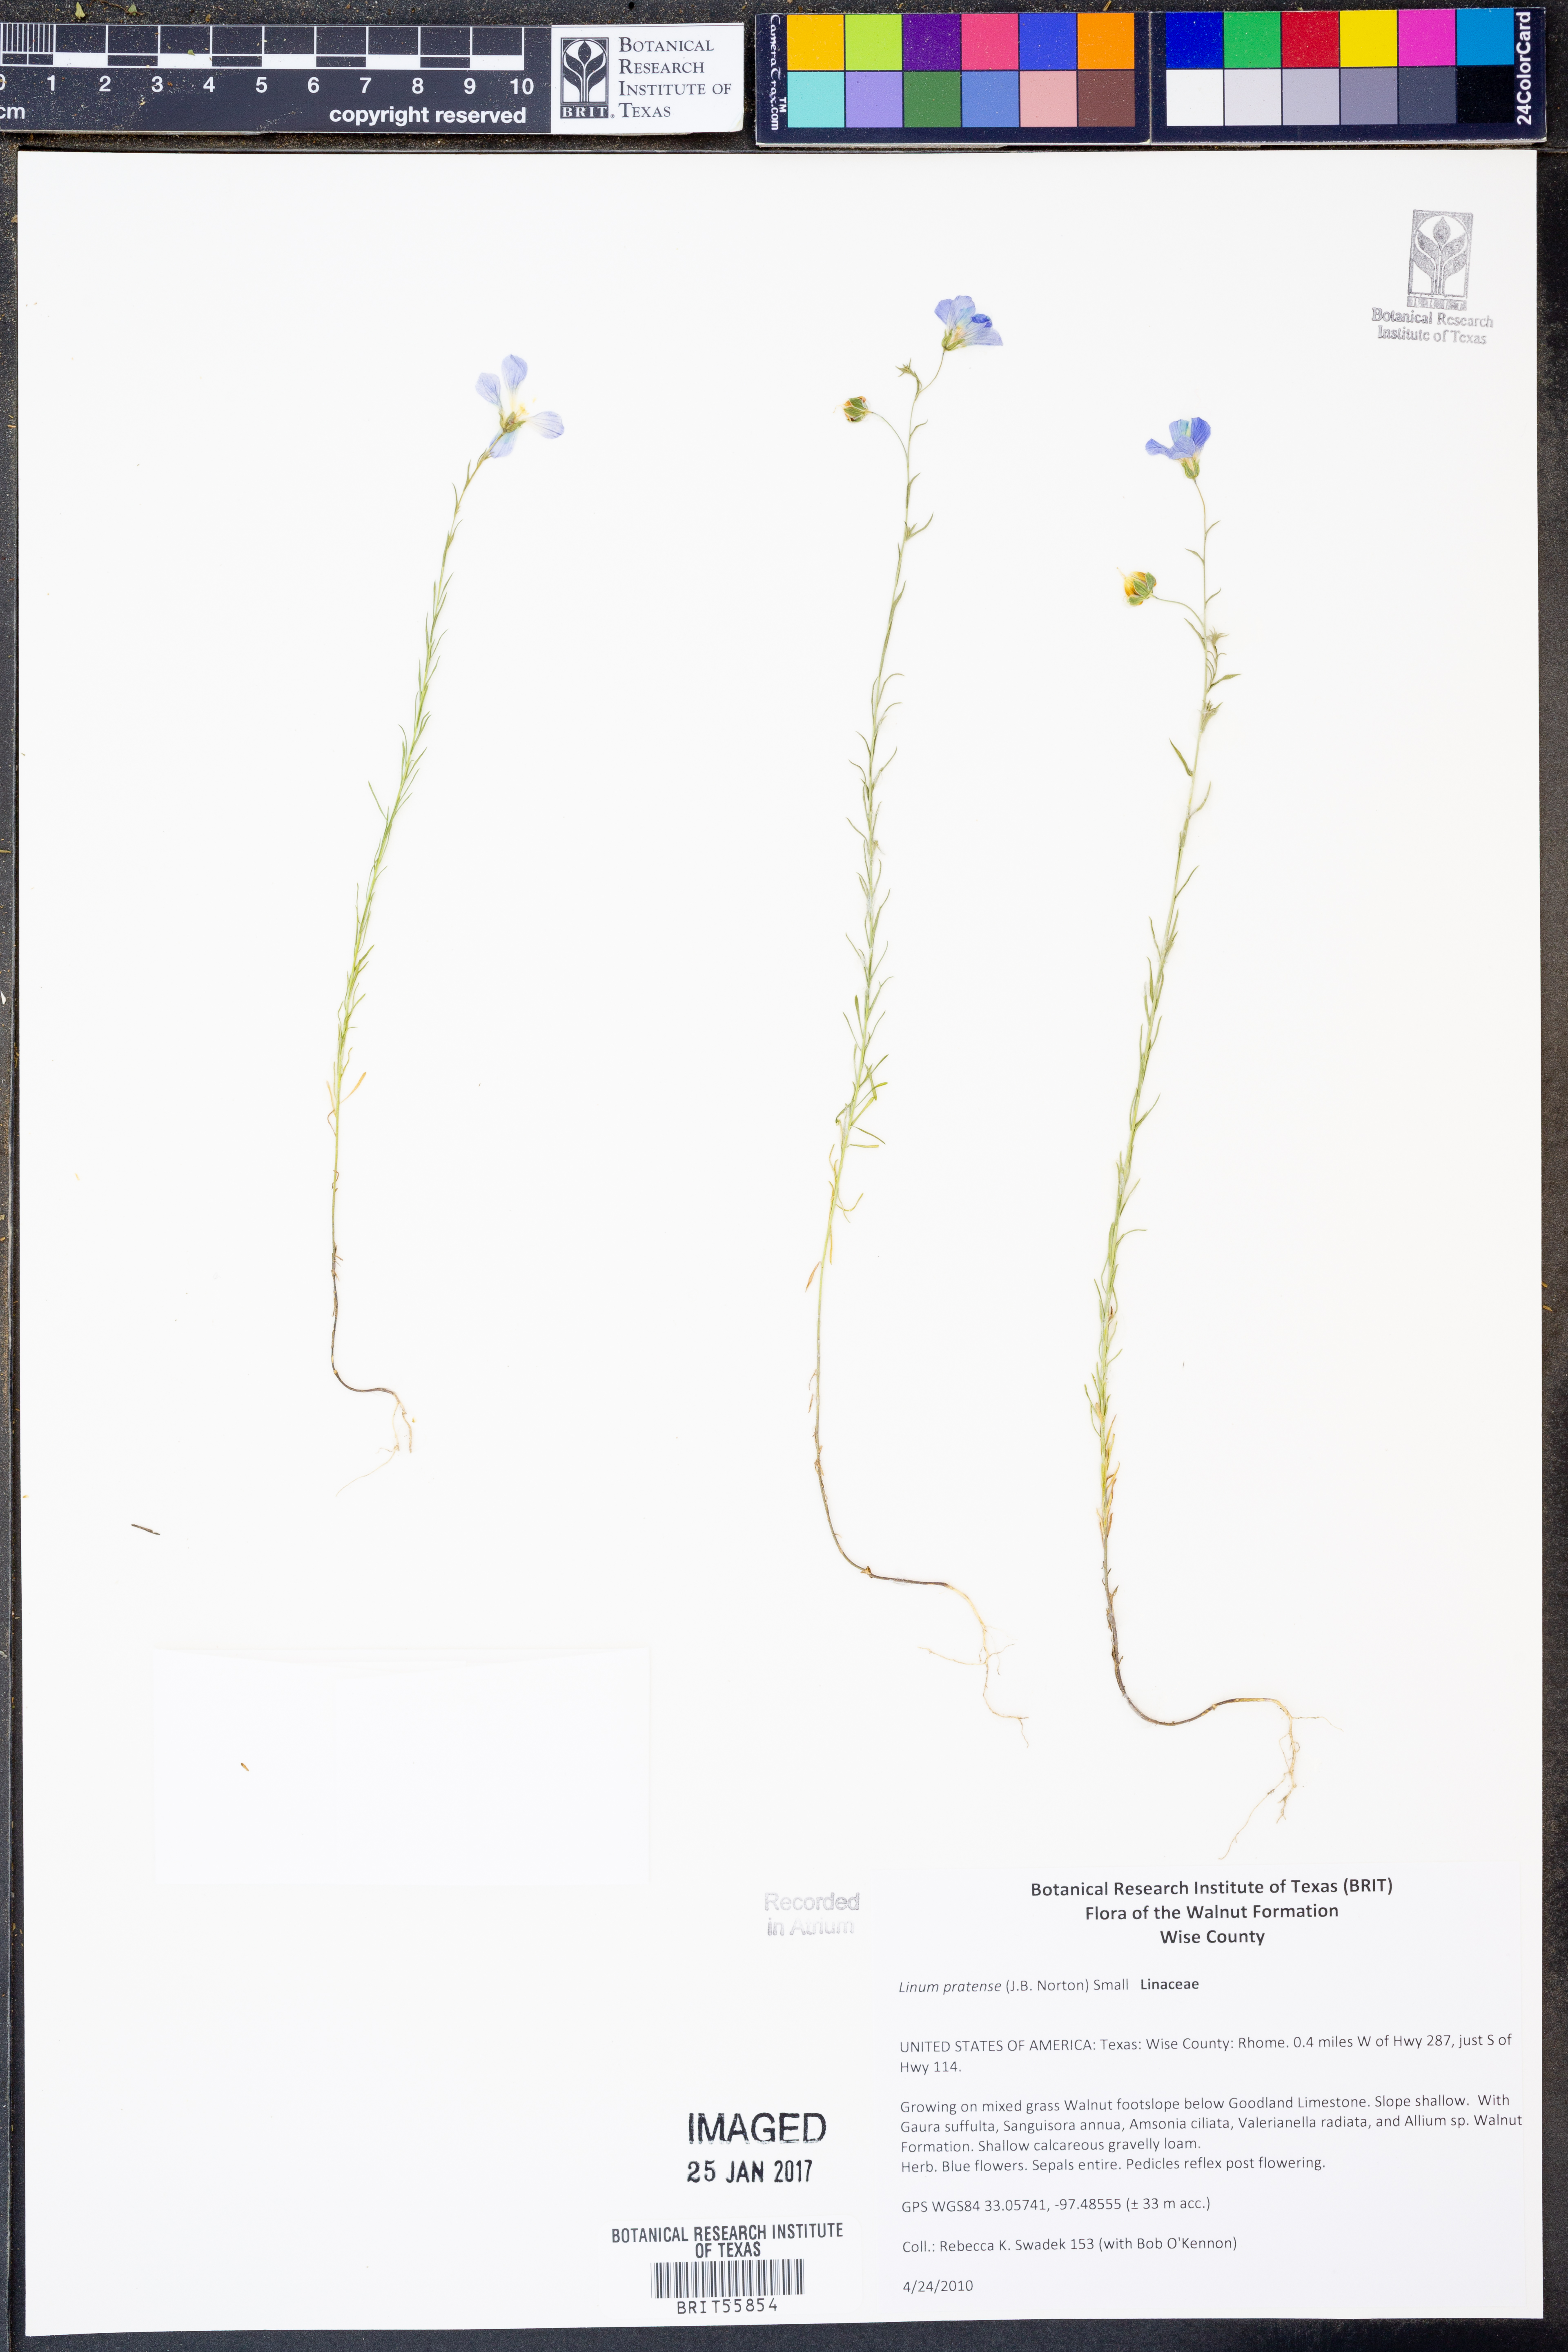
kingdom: Plantae
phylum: Tracheophyta
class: Magnoliopsida
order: Malpighiales
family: Linaceae
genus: Linum
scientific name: Linum pratense
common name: Norton's flax
